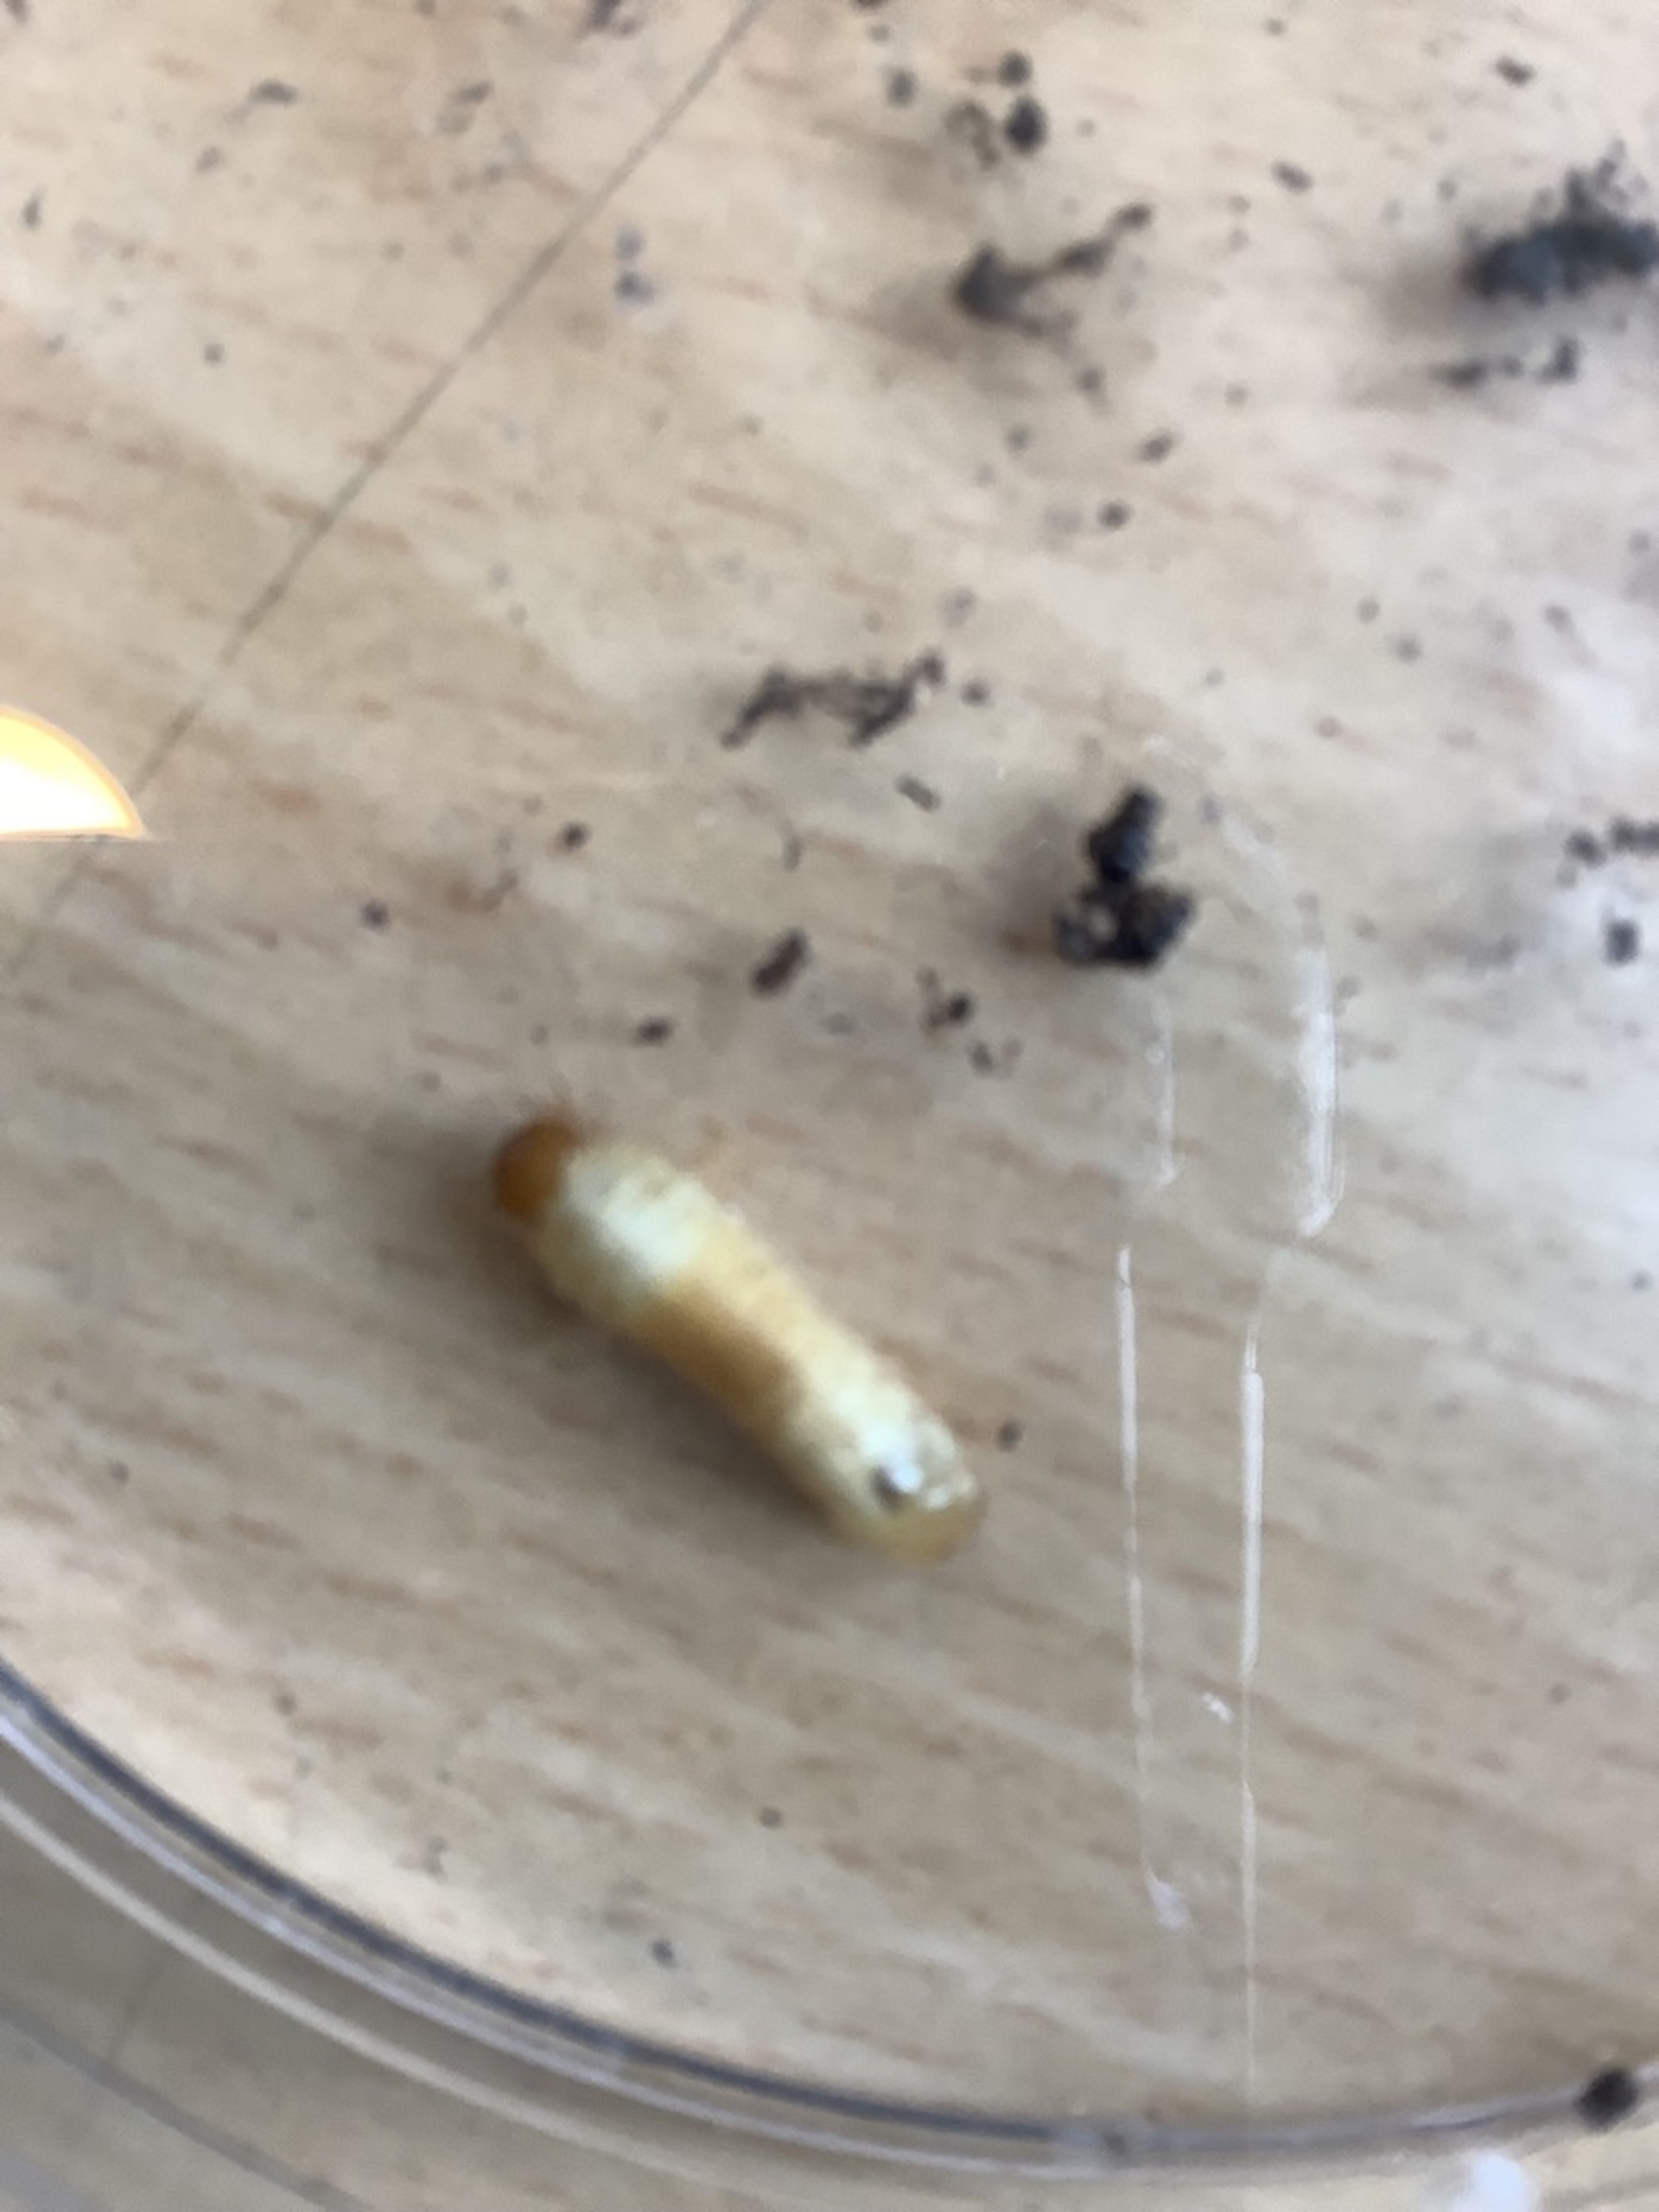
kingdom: Animalia
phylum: Arthropoda
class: Insecta
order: Coleoptera
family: Scarabaeidae
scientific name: Scarabaeidae
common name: Torbister
